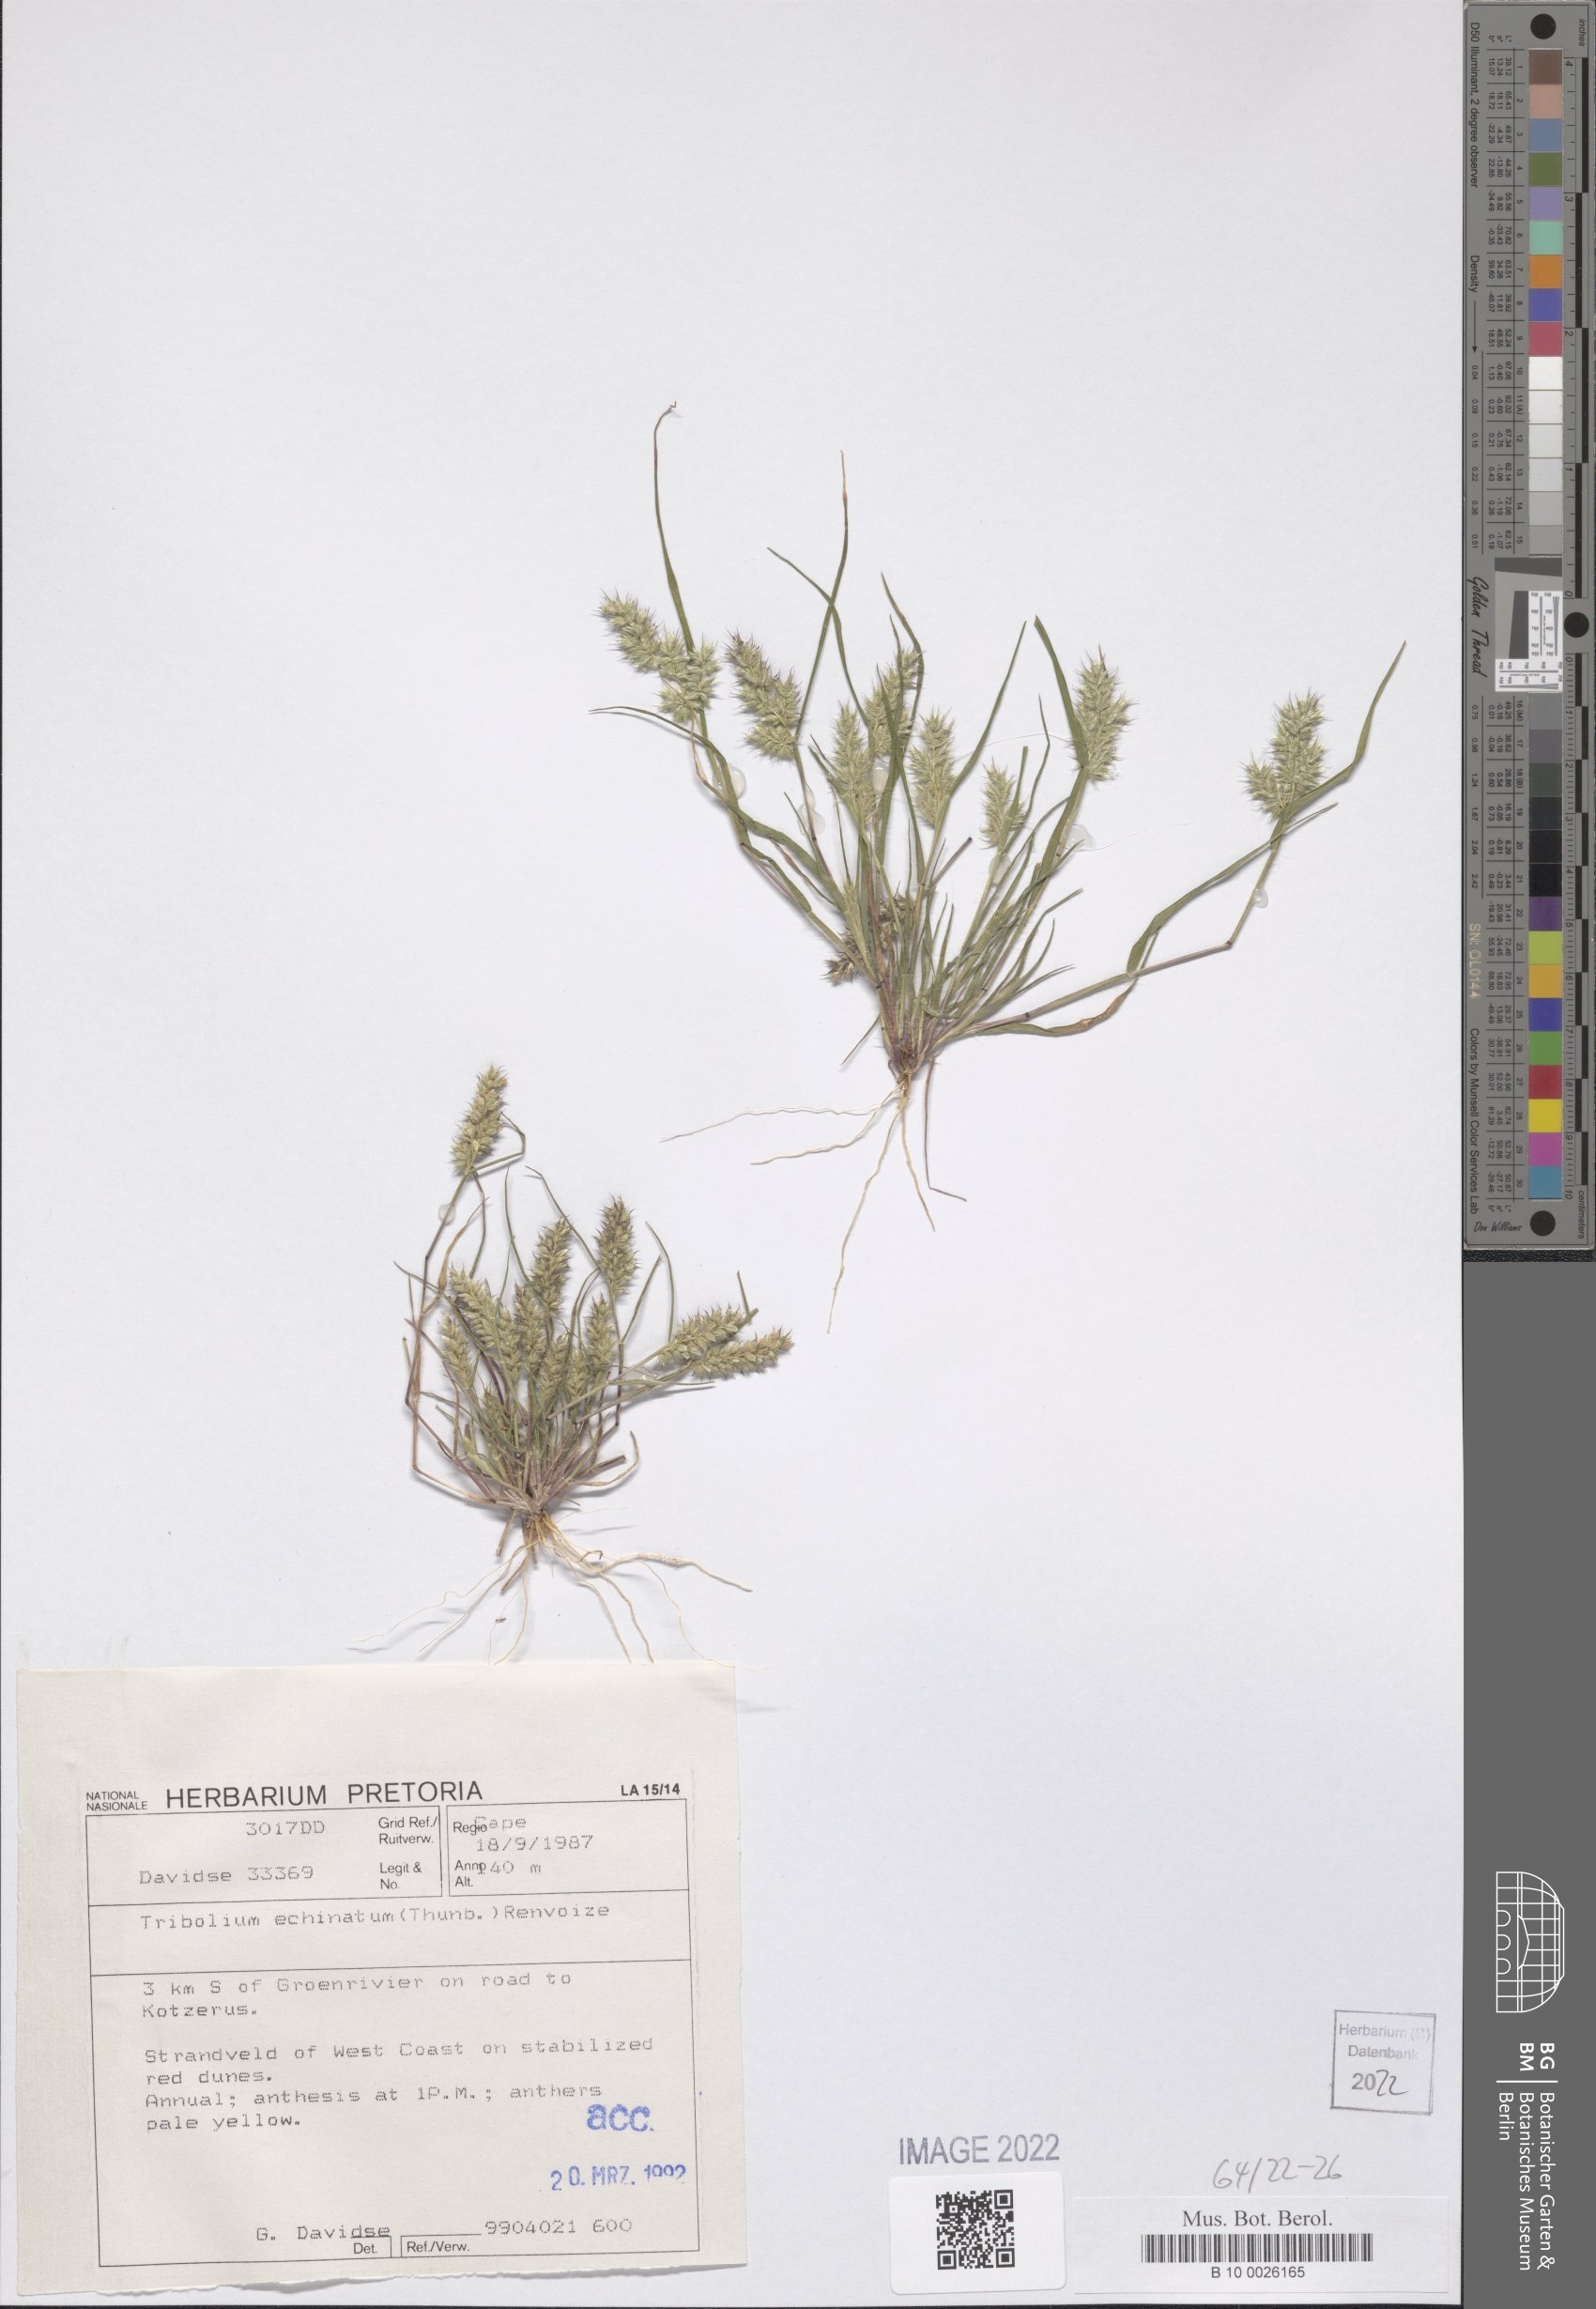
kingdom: Plantae
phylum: Tracheophyta
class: Liliopsida
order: Poales
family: Poaceae
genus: Tribolium
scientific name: Tribolium echinatum
